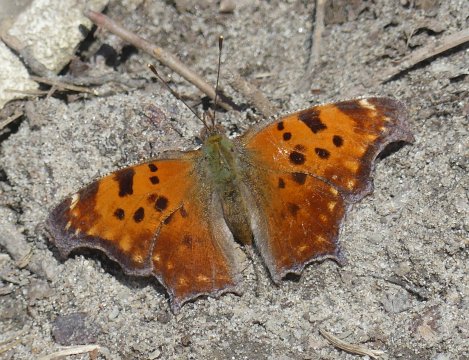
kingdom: Animalia
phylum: Arthropoda
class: Insecta
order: Lepidoptera
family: Nymphalidae
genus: Polygonia
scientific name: Polygonia comma
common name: Eastern Comma
